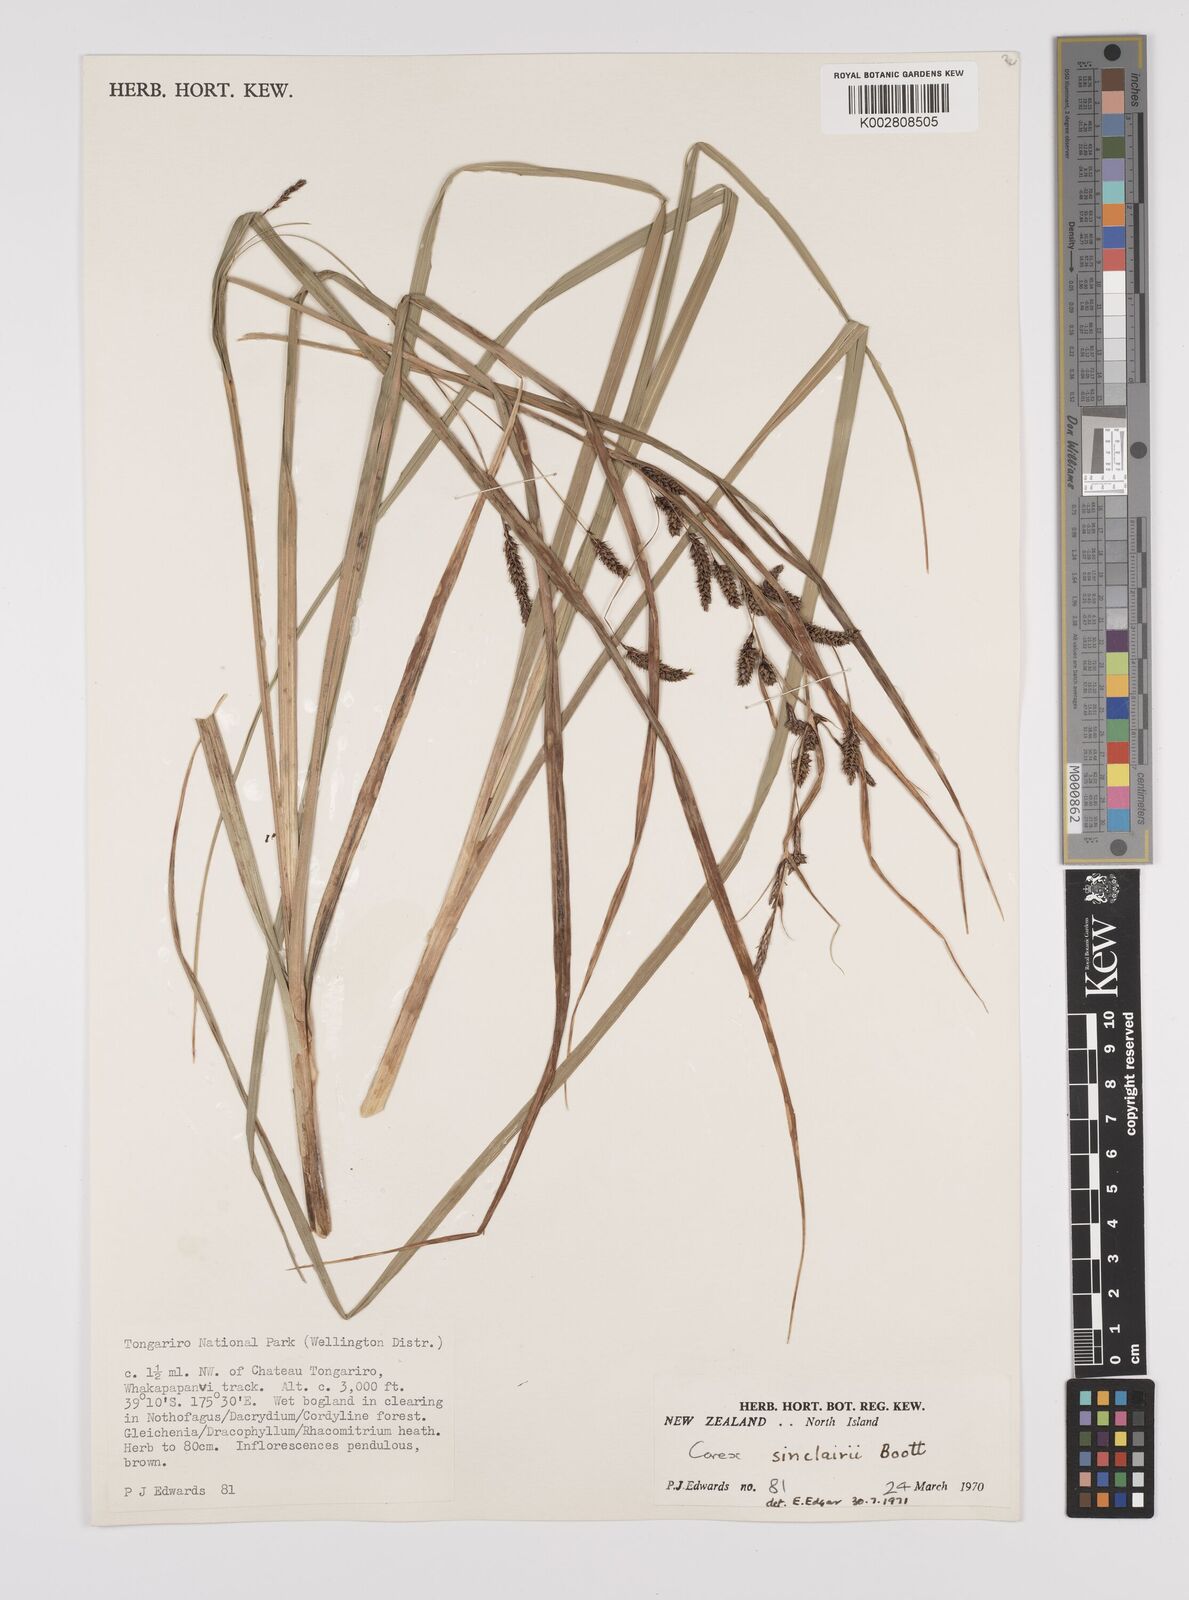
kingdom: Plantae
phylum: Tracheophyta
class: Liliopsida
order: Poales
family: Cyperaceae
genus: Carex
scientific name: Carex sinclairii
